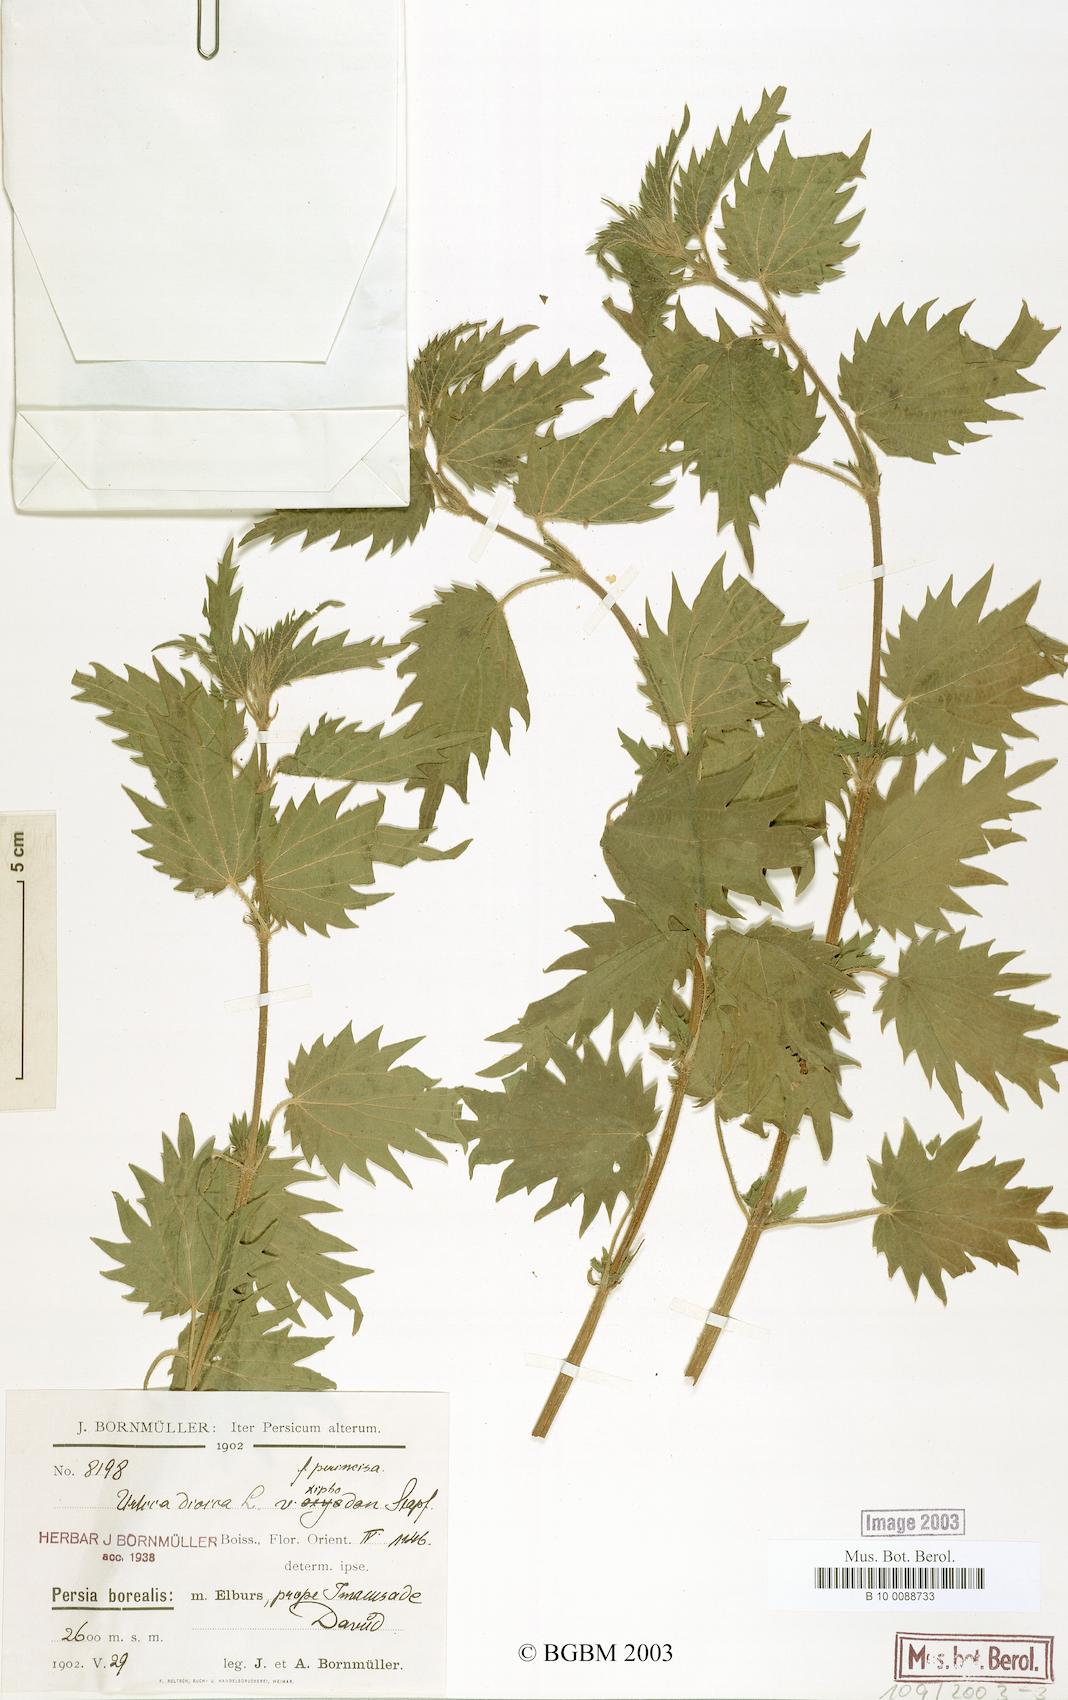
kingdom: Plantae
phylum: Tracheophyta
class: Magnoliopsida
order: Rosales
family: Urticaceae
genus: Urtica
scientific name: Urtica dioica
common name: Common nettle
